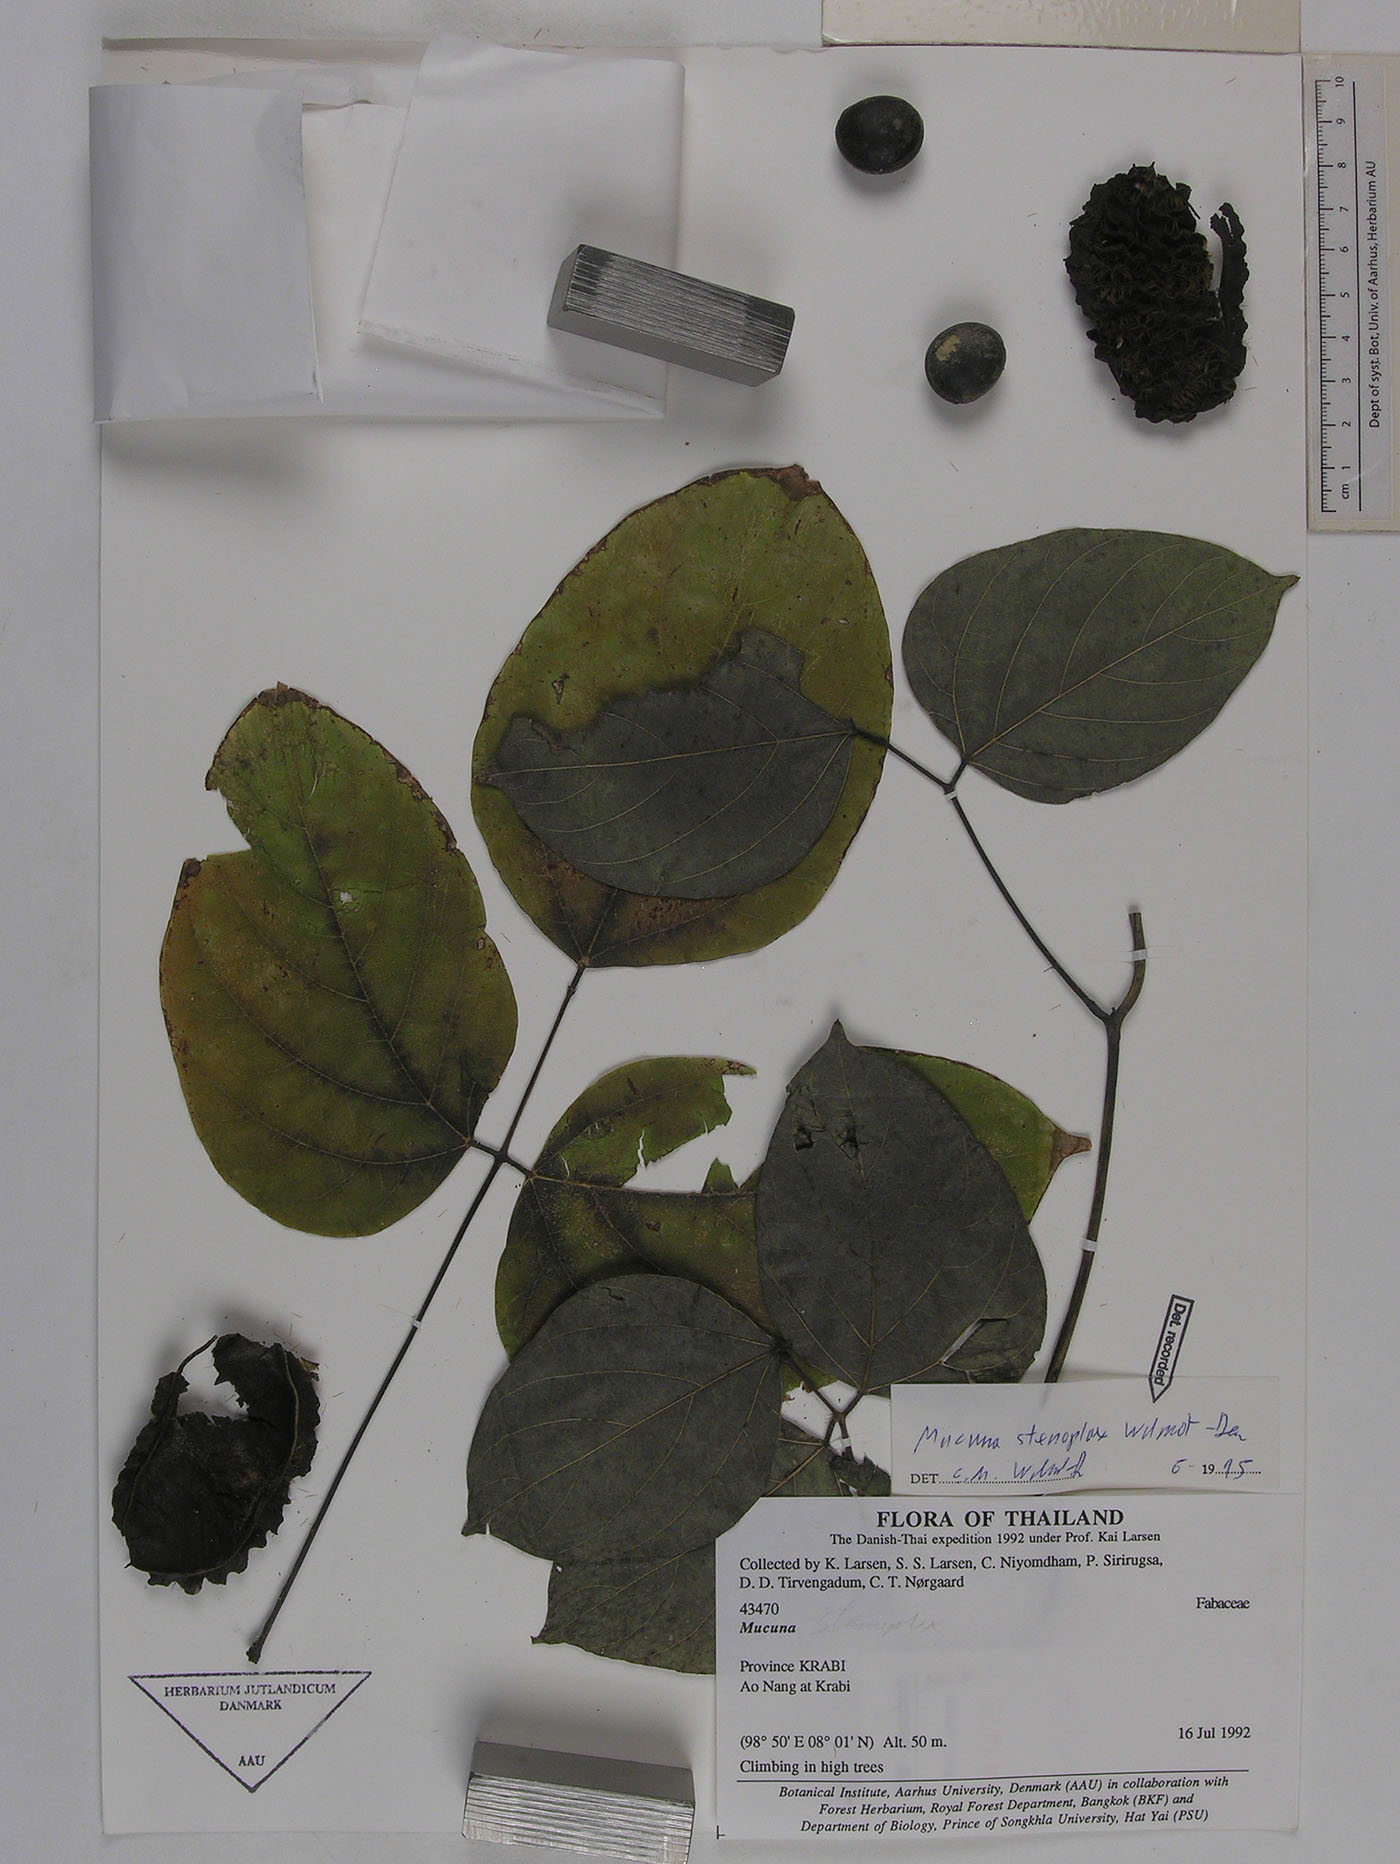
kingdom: Plantae
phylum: Tracheophyta
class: Magnoliopsida
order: Fabales
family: Fabaceae
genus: Mucuna
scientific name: Mucuna stenoplax
